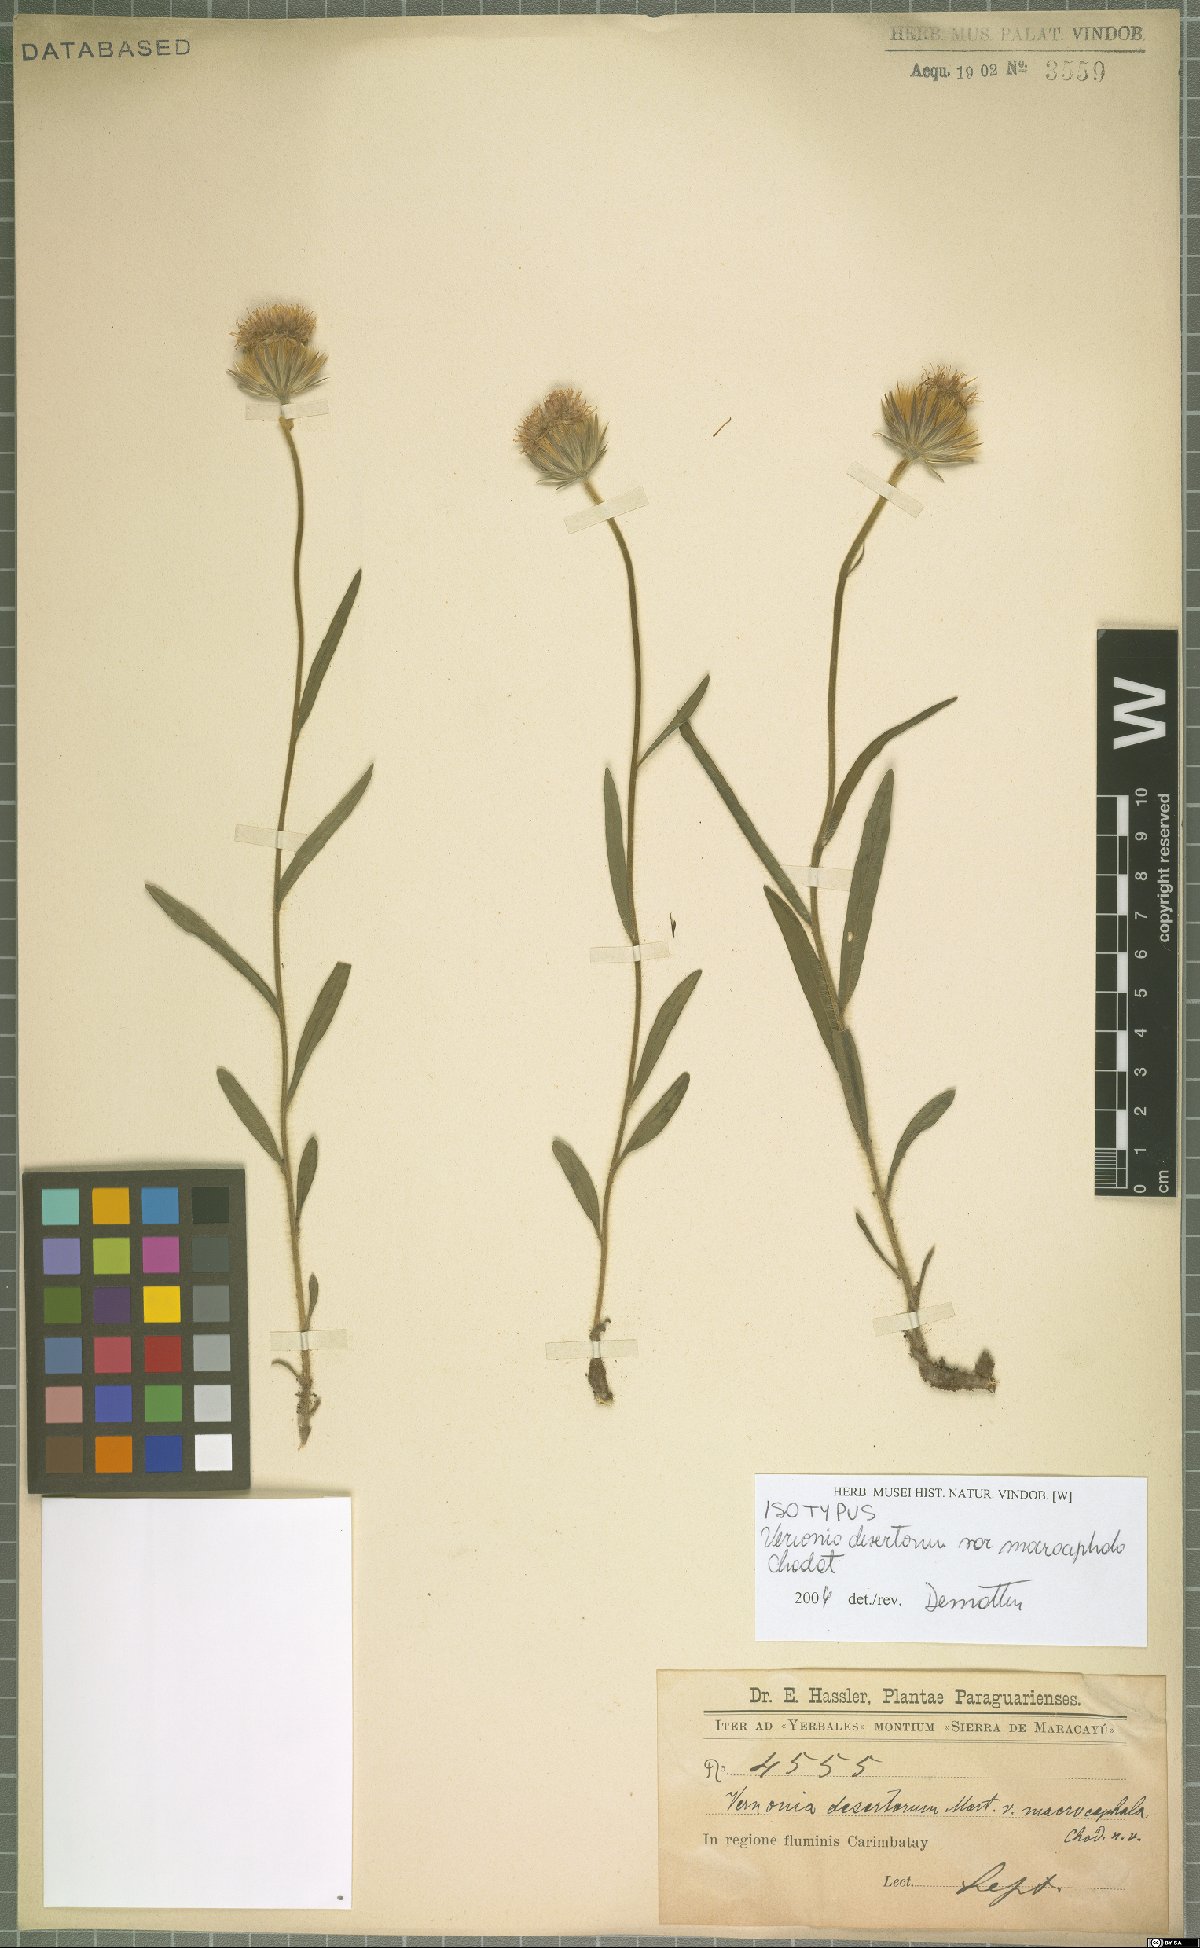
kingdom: Plantae
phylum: Tracheophyta
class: Magnoliopsida
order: Asterales
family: Asteraceae
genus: Chrysolaena
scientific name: Chrysolaena desertorum
